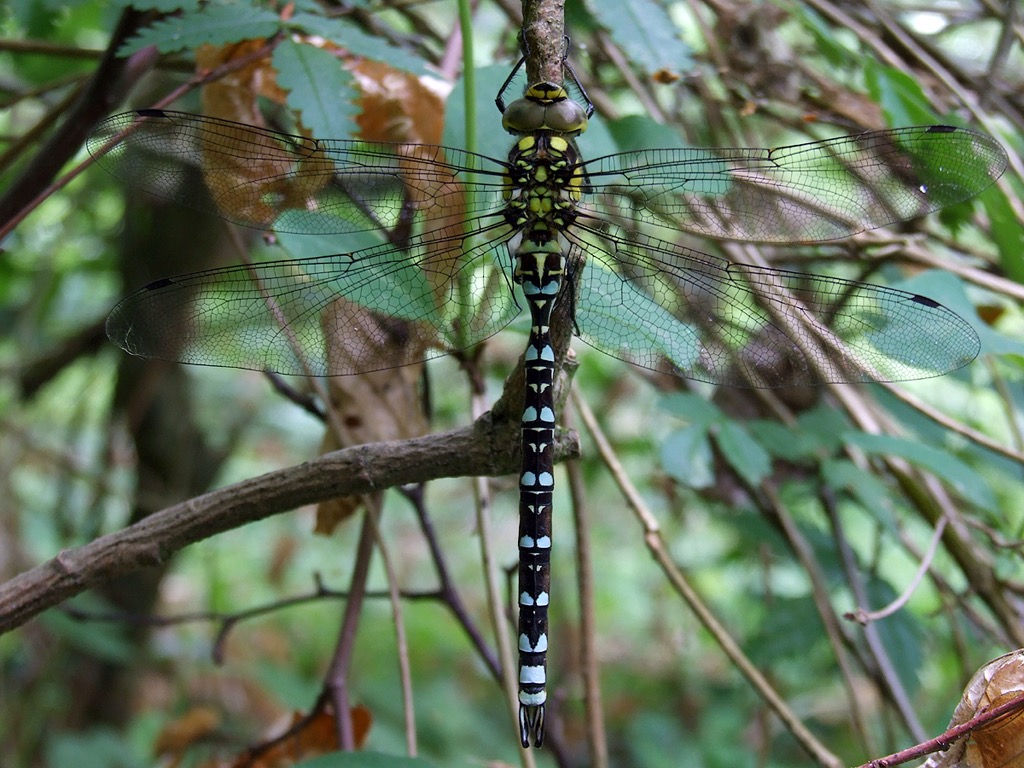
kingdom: Animalia
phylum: Arthropoda
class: Insecta
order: Odonata
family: Aeshnidae
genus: Aeshna
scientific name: Aeshna cyanea
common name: Blå mosaikguldsmed
